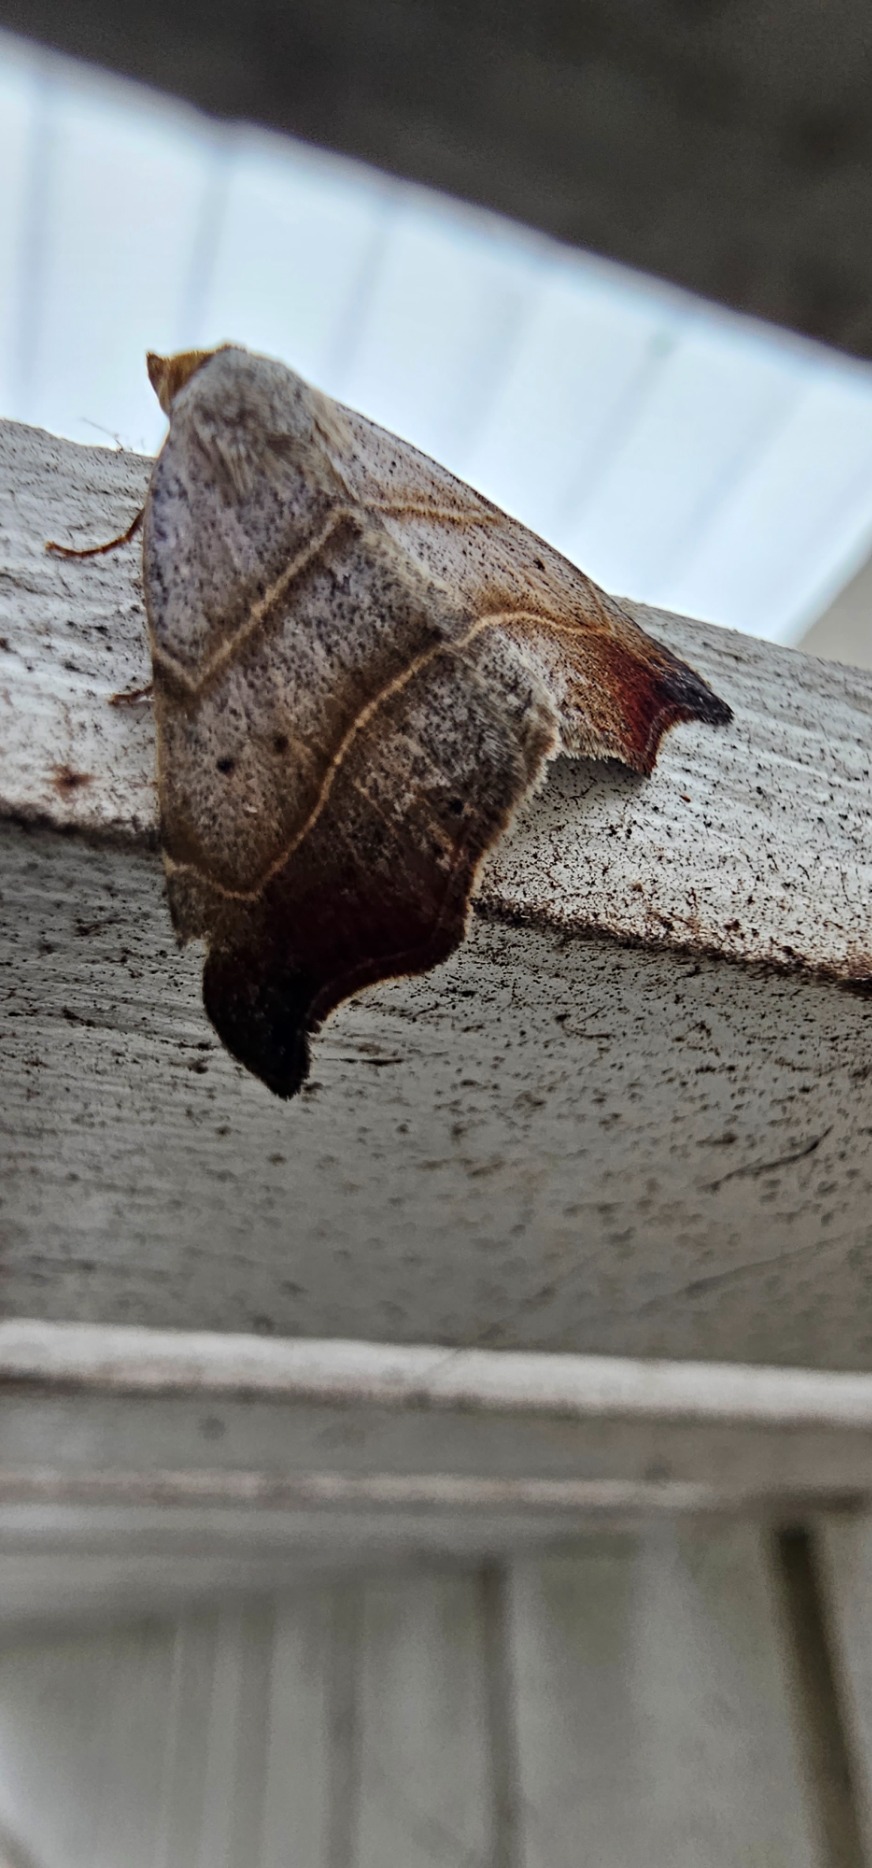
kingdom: Animalia
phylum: Arthropoda
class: Insecta
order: Lepidoptera
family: Erebidae
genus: Laspeyria
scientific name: Laspeyria flexula
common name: Grå lavugle
